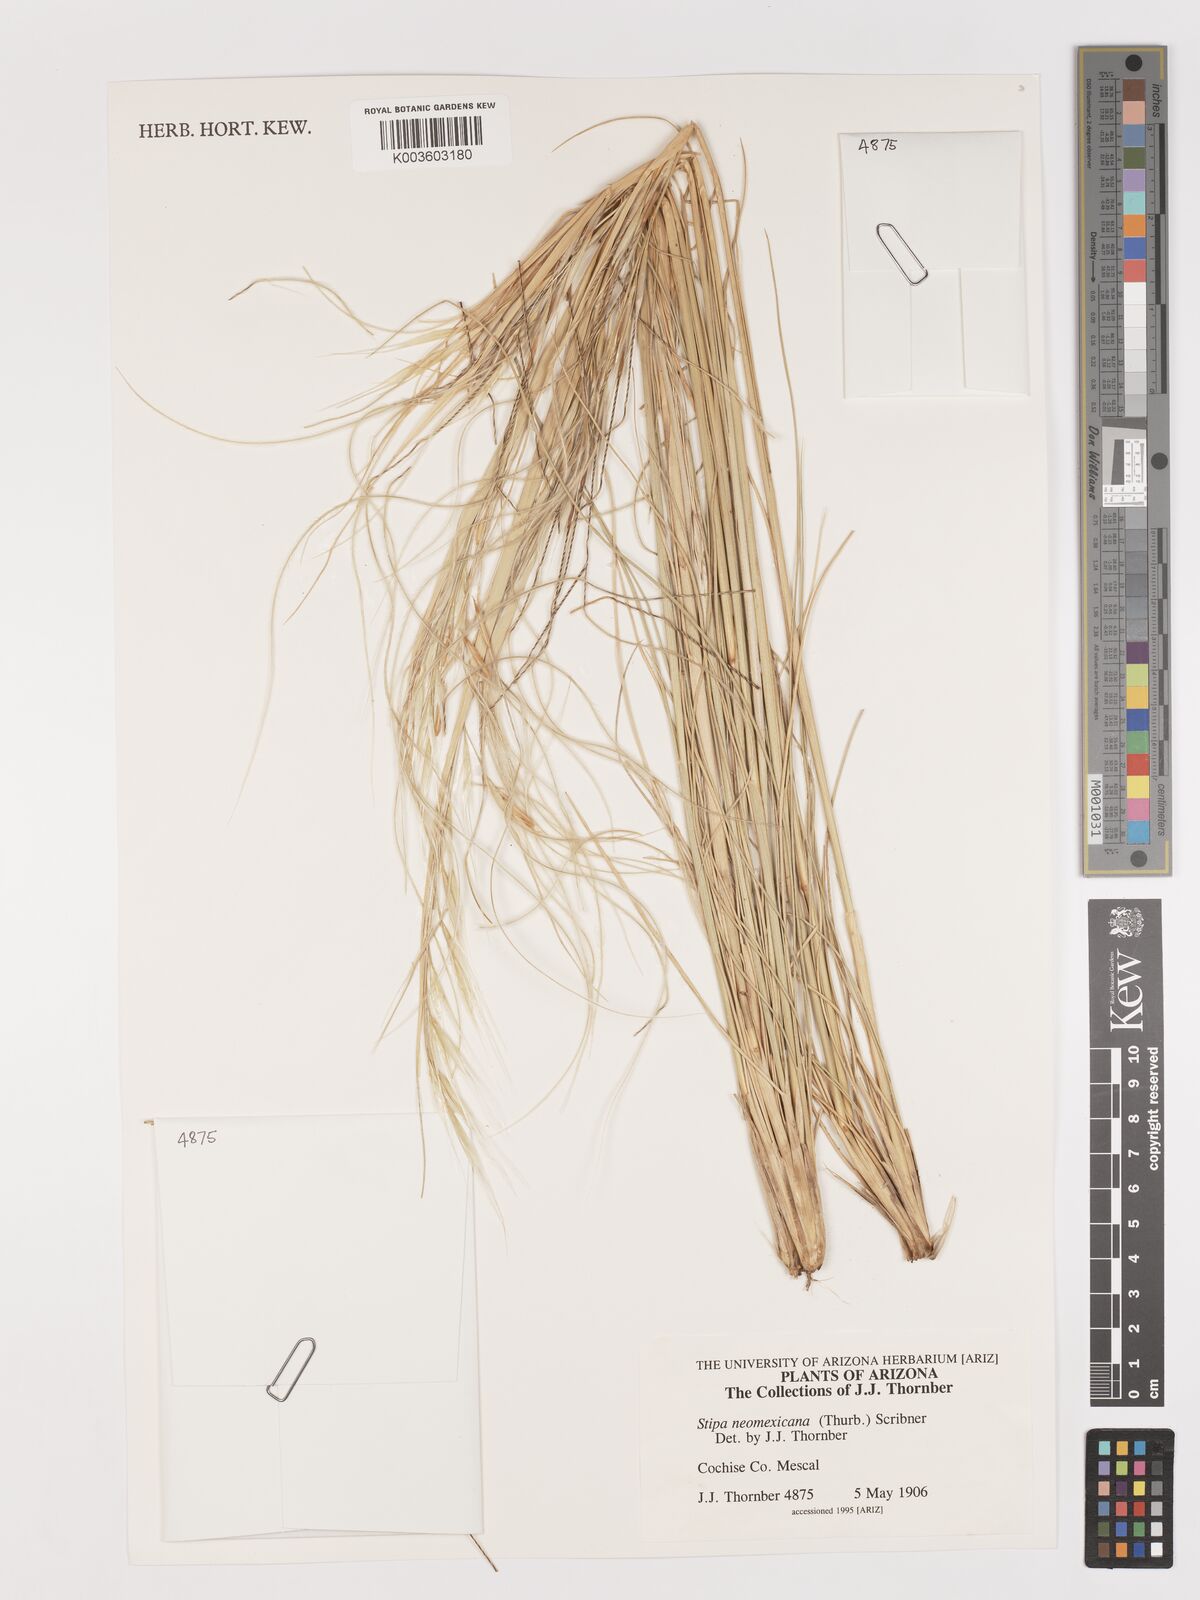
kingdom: Plantae
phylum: Tracheophyta
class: Liliopsida
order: Poales
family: Poaceae
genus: Hesperostipa
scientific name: Hesperostipa neomexicana
